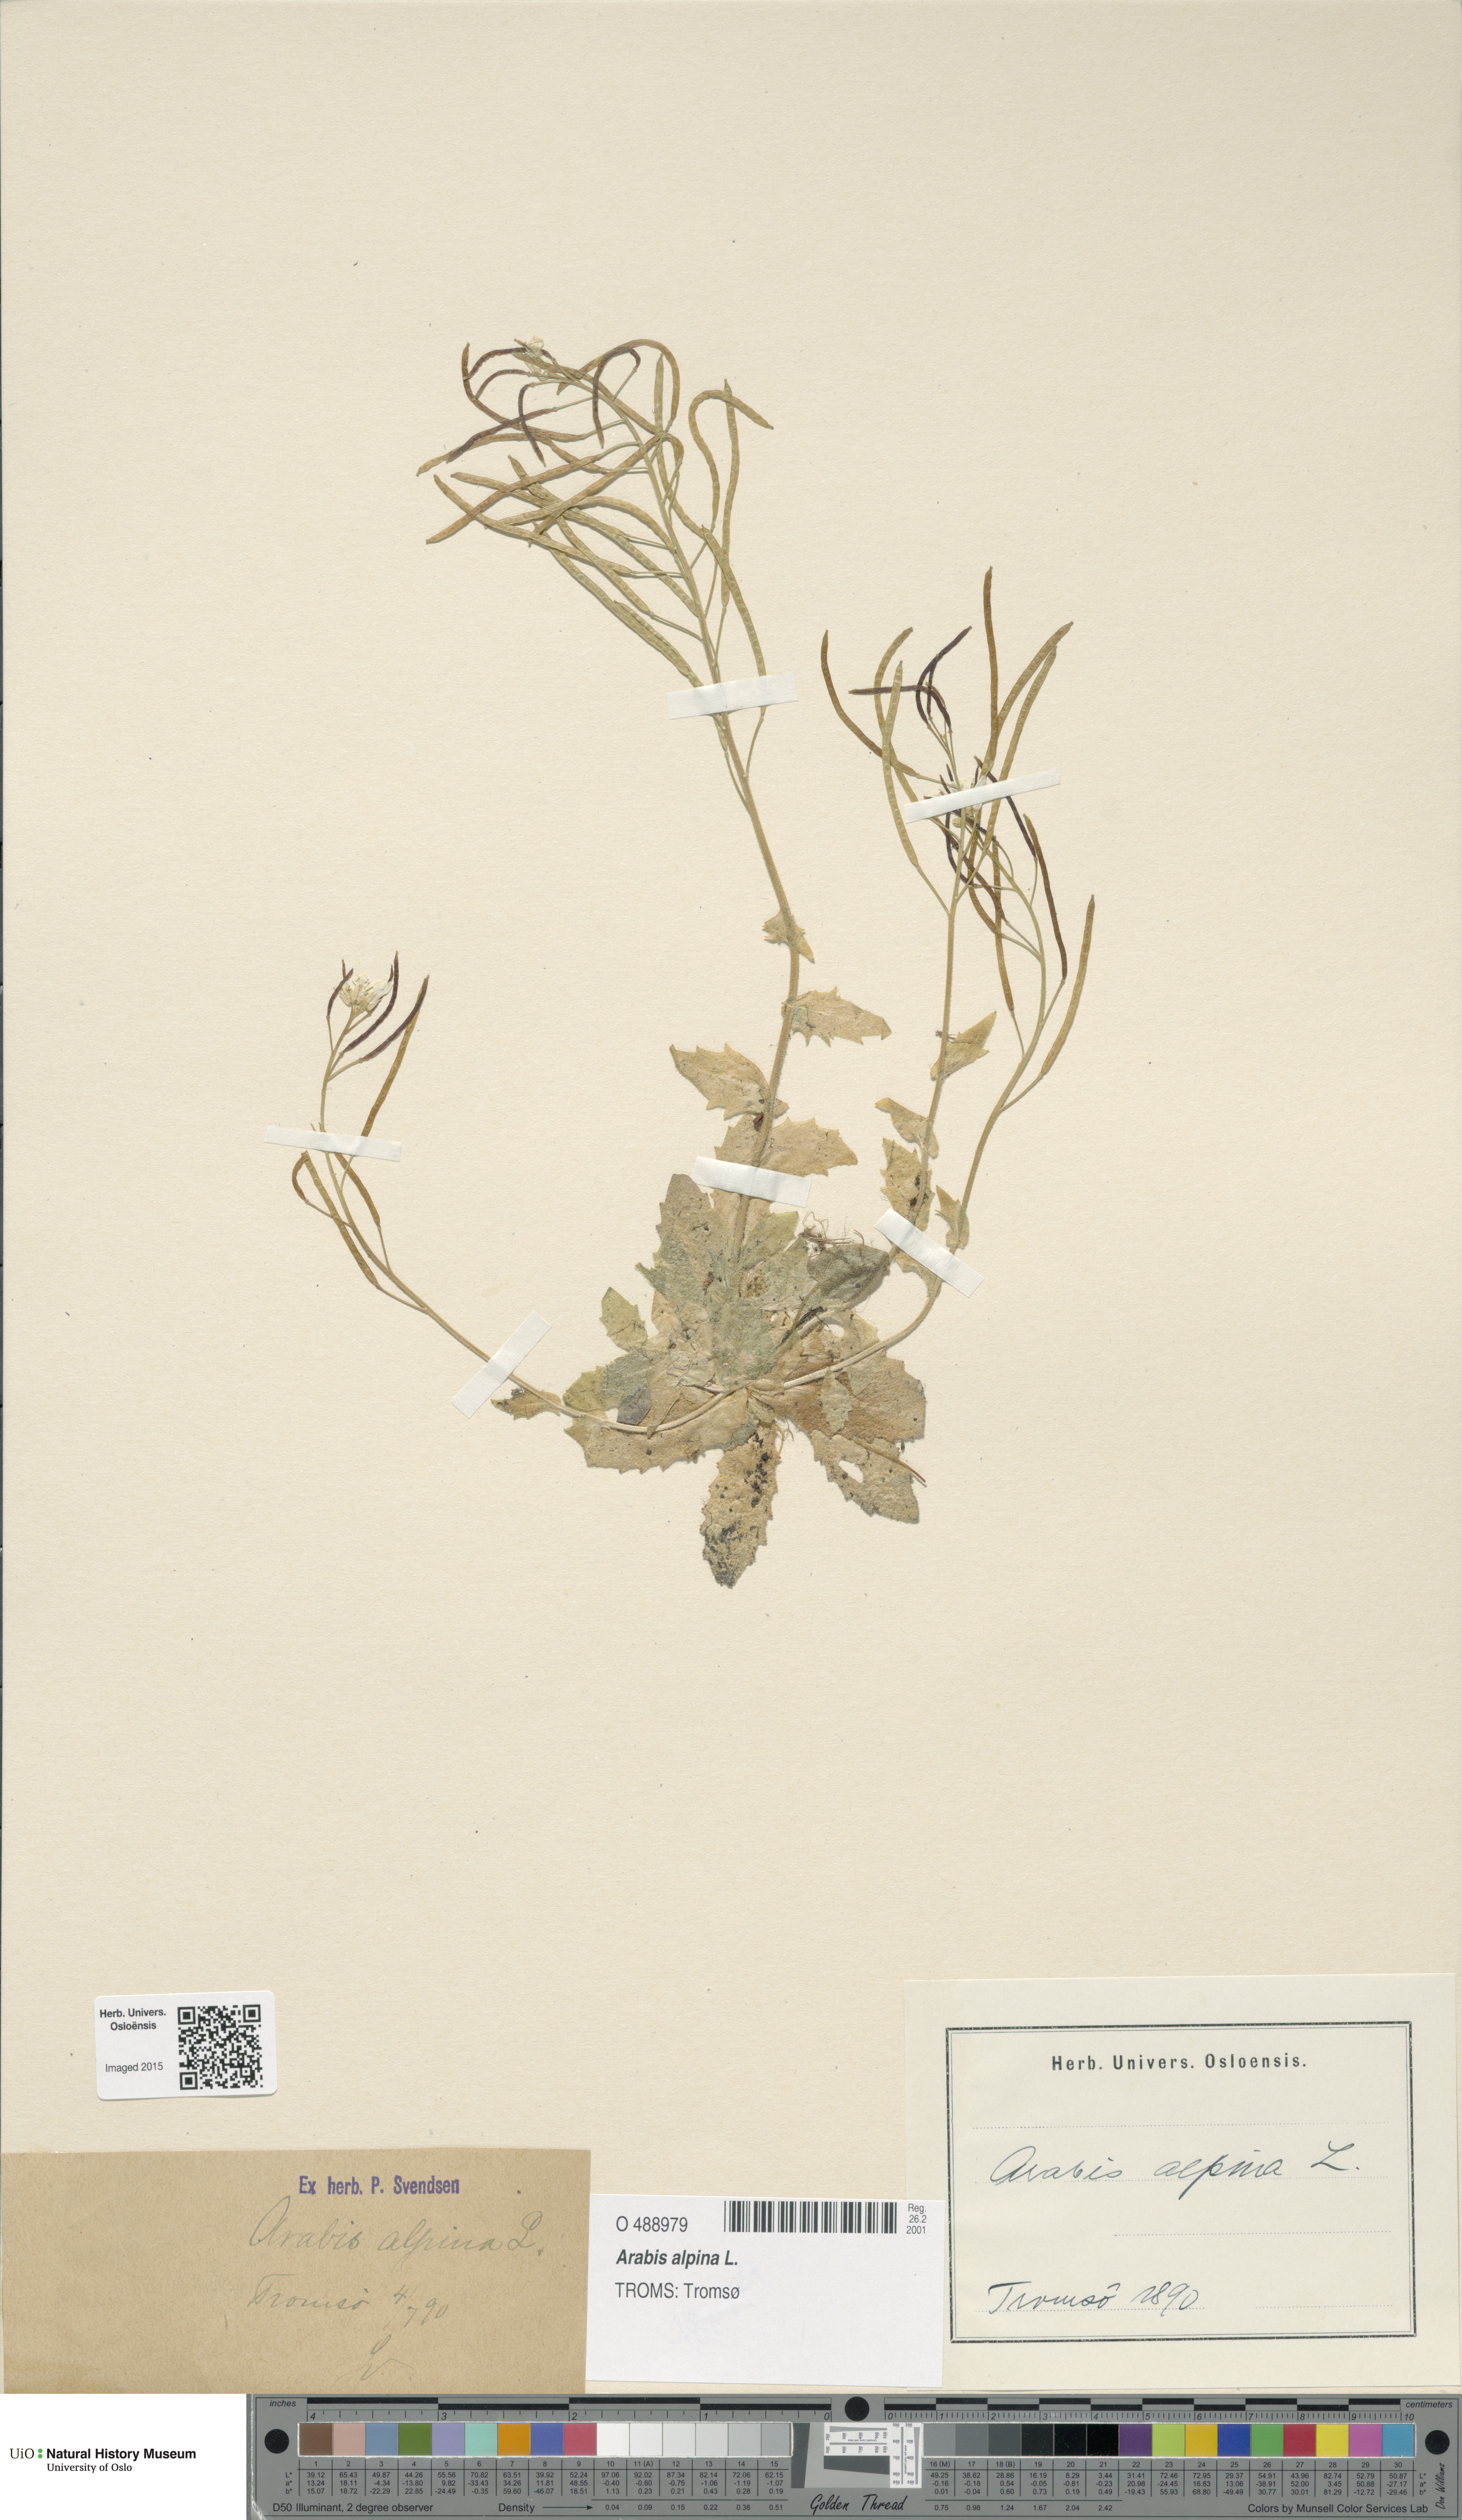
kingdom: Plantae
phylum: Tracheophyta
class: Magnoliopsida
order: Brassicales
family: Brassicaceae
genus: Arabis
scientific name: Arabis alpina
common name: Alpine rock-cress
